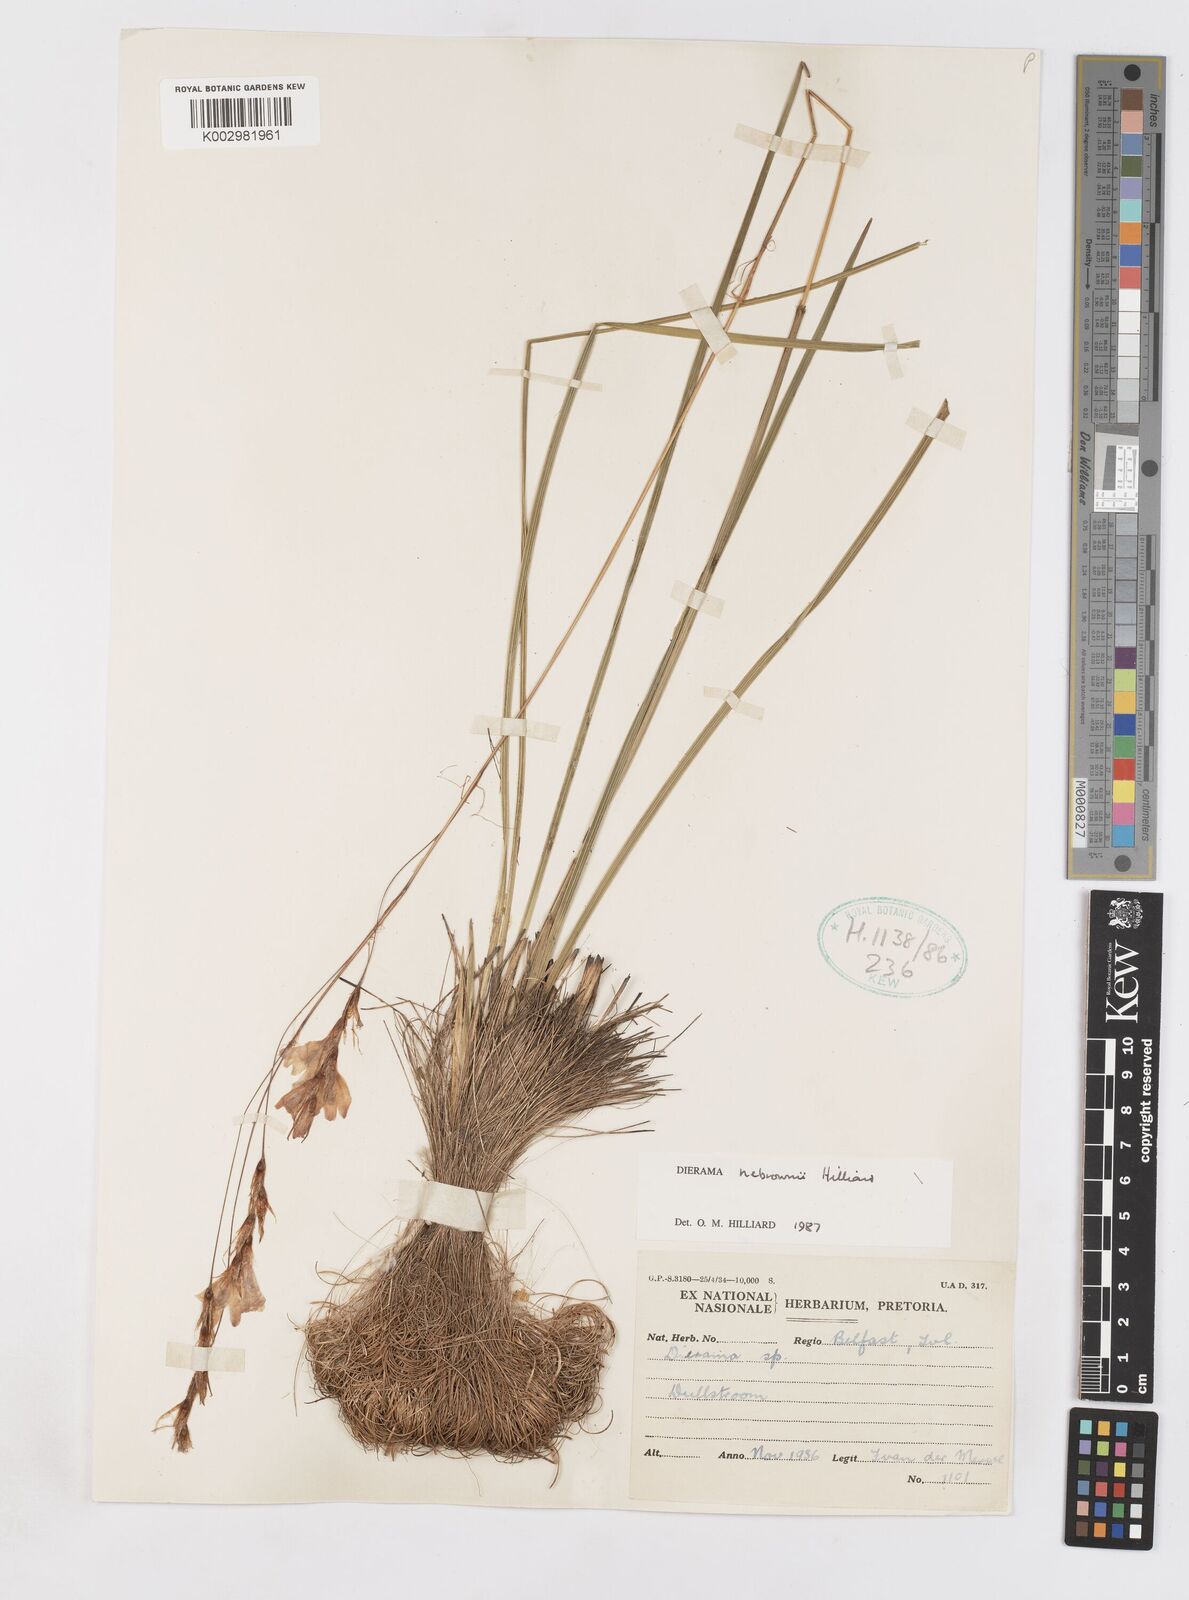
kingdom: Plantae
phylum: Tracheophyta
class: Liliopsida
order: Asparagales
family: Iridaceae
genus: Dierama
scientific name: Dierama nebrownii
